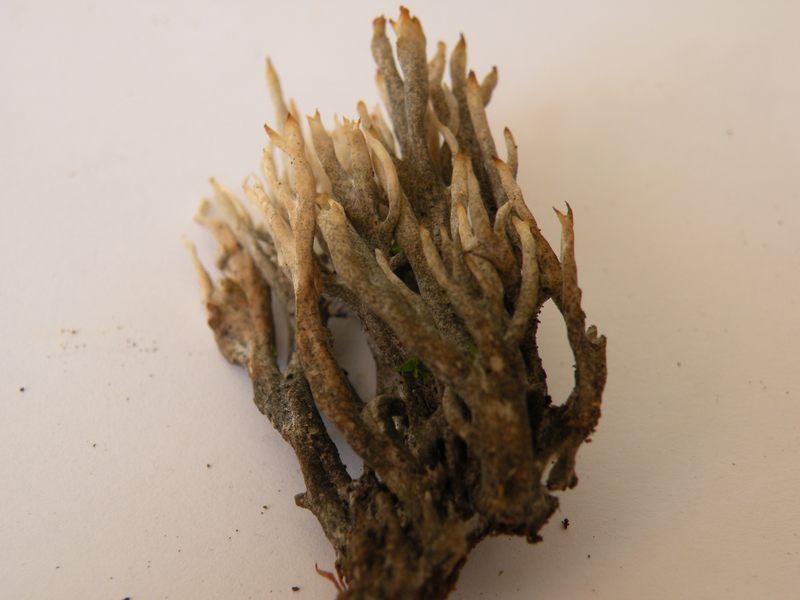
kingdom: Fungi
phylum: Ascomycota
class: Sordariomycetes
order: Sordariales
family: Helminthosphaeriaceae
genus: Helminthosphaeria
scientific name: Helminthosphaeria clavariarum
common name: trold-svampesnyltekerne
